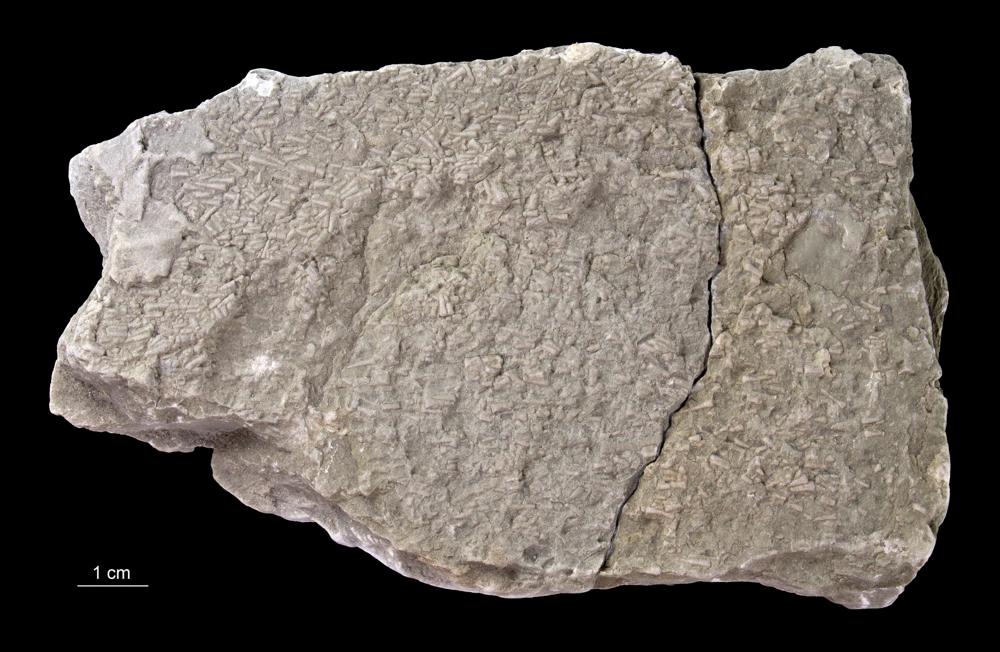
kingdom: Animalia
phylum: Annelida
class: Polychaeta
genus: Volborthella
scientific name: Volborthella tenuis
